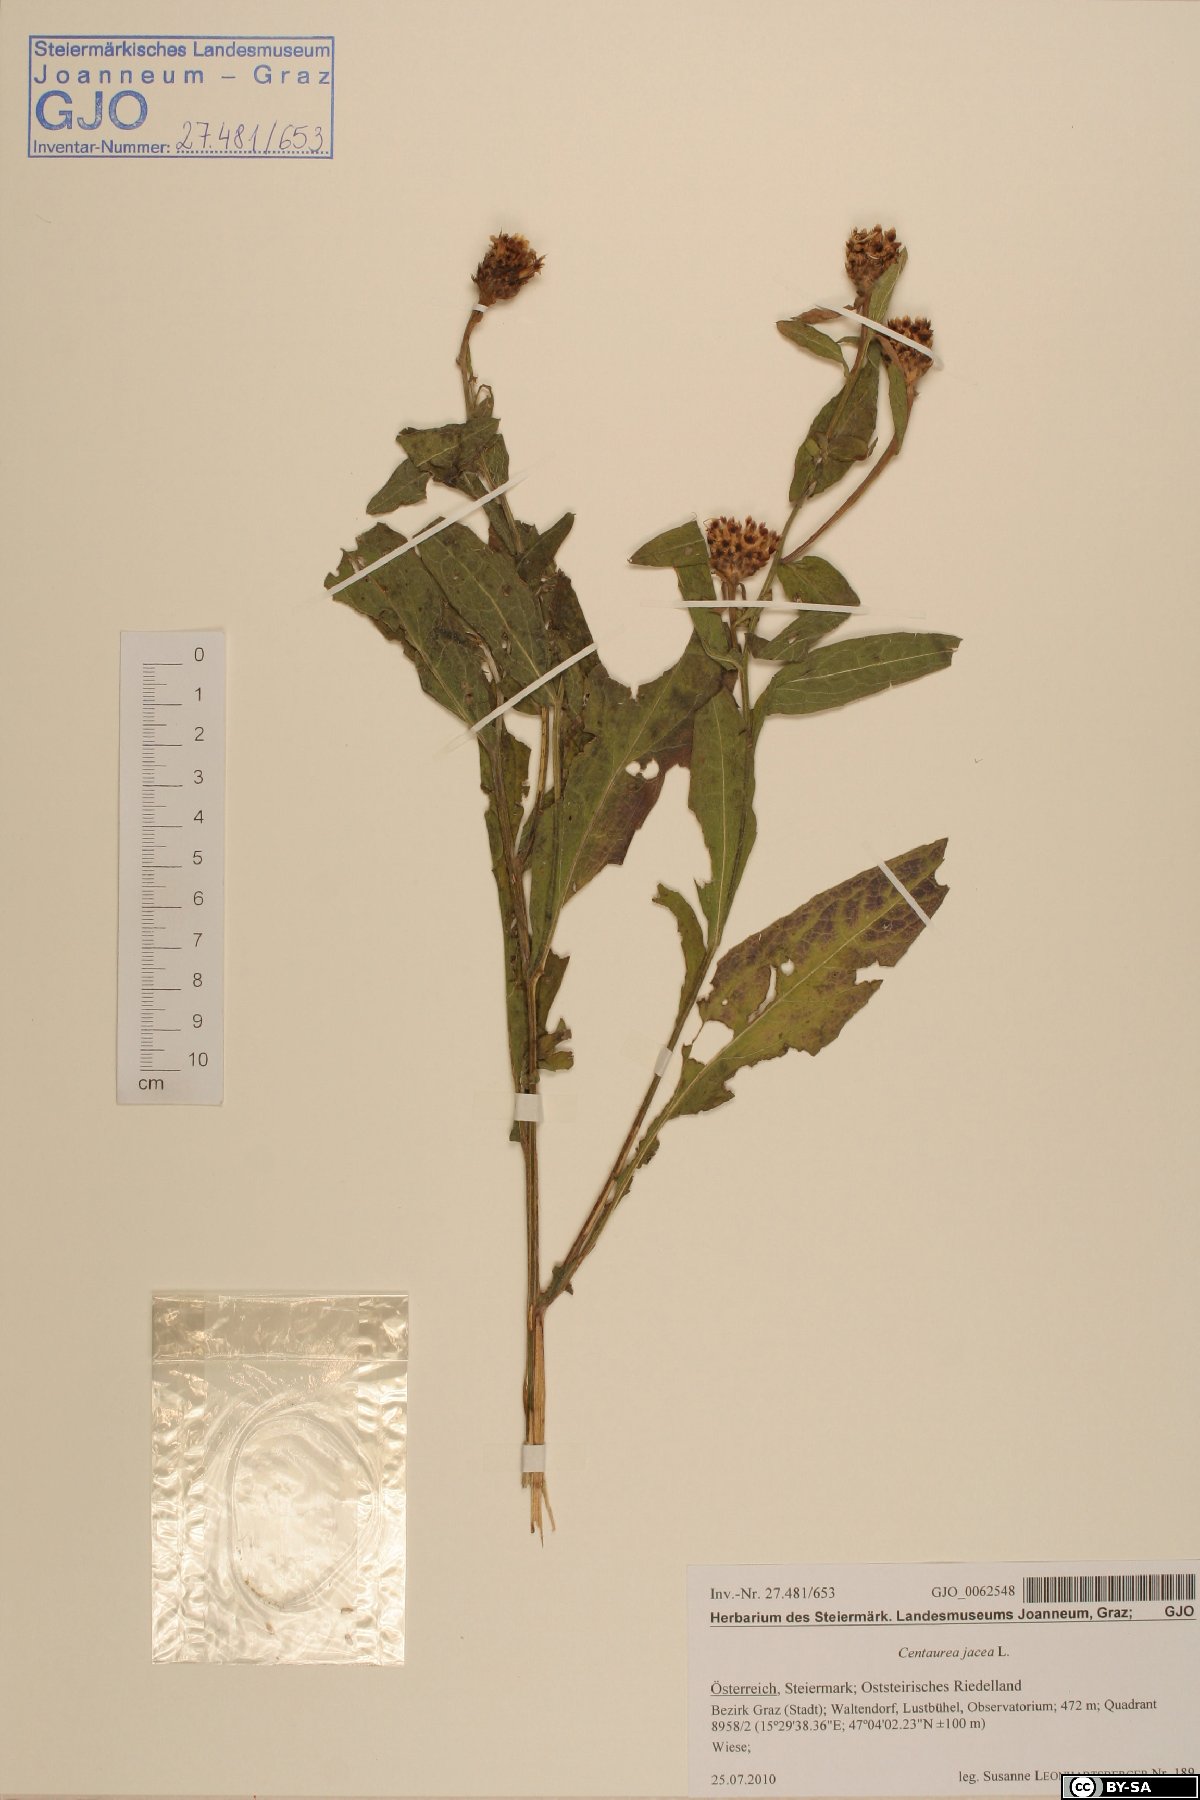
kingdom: Plantae
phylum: Tracheophyta
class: Magnoliopsida
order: Asterales
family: Asteraceae
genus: Centaurea
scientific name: Centaurea jacea
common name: Brown knapweed
